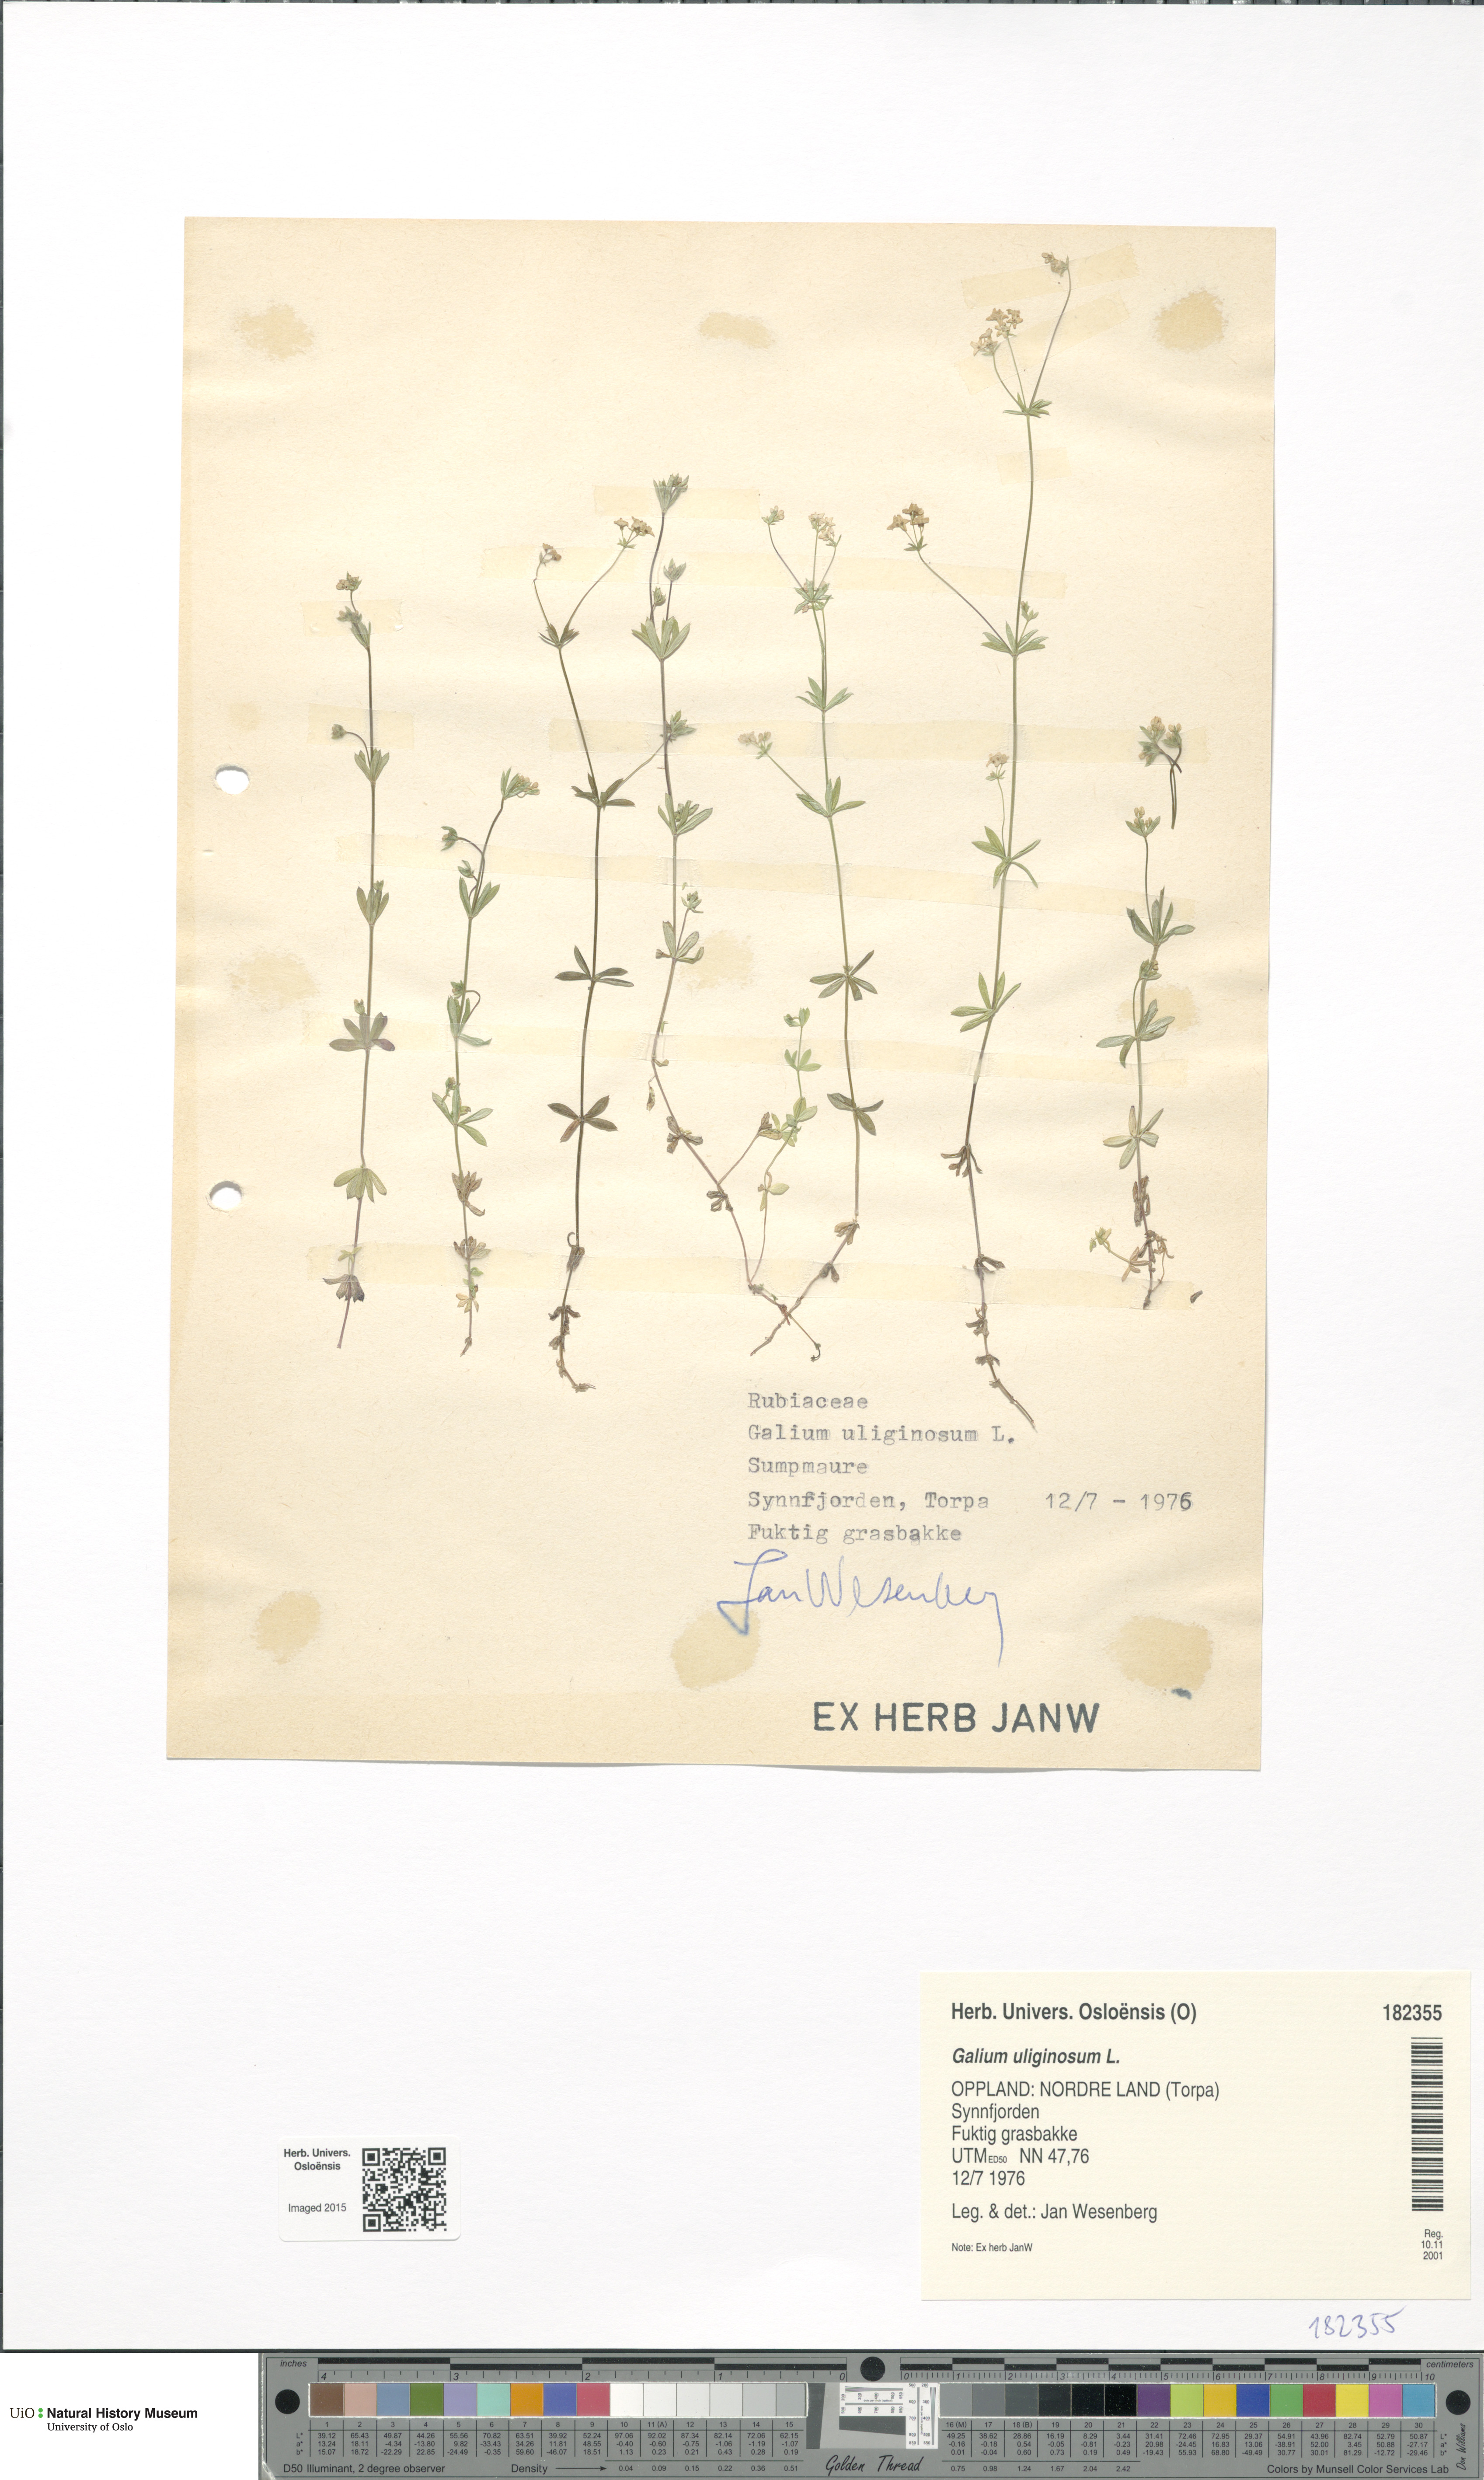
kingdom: Plantae
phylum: Tracheophyta
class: Magnoliopsida
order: Gentianales
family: Rubiaceae
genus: Galium
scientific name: Galium uliginosum
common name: Fen bedstraw
